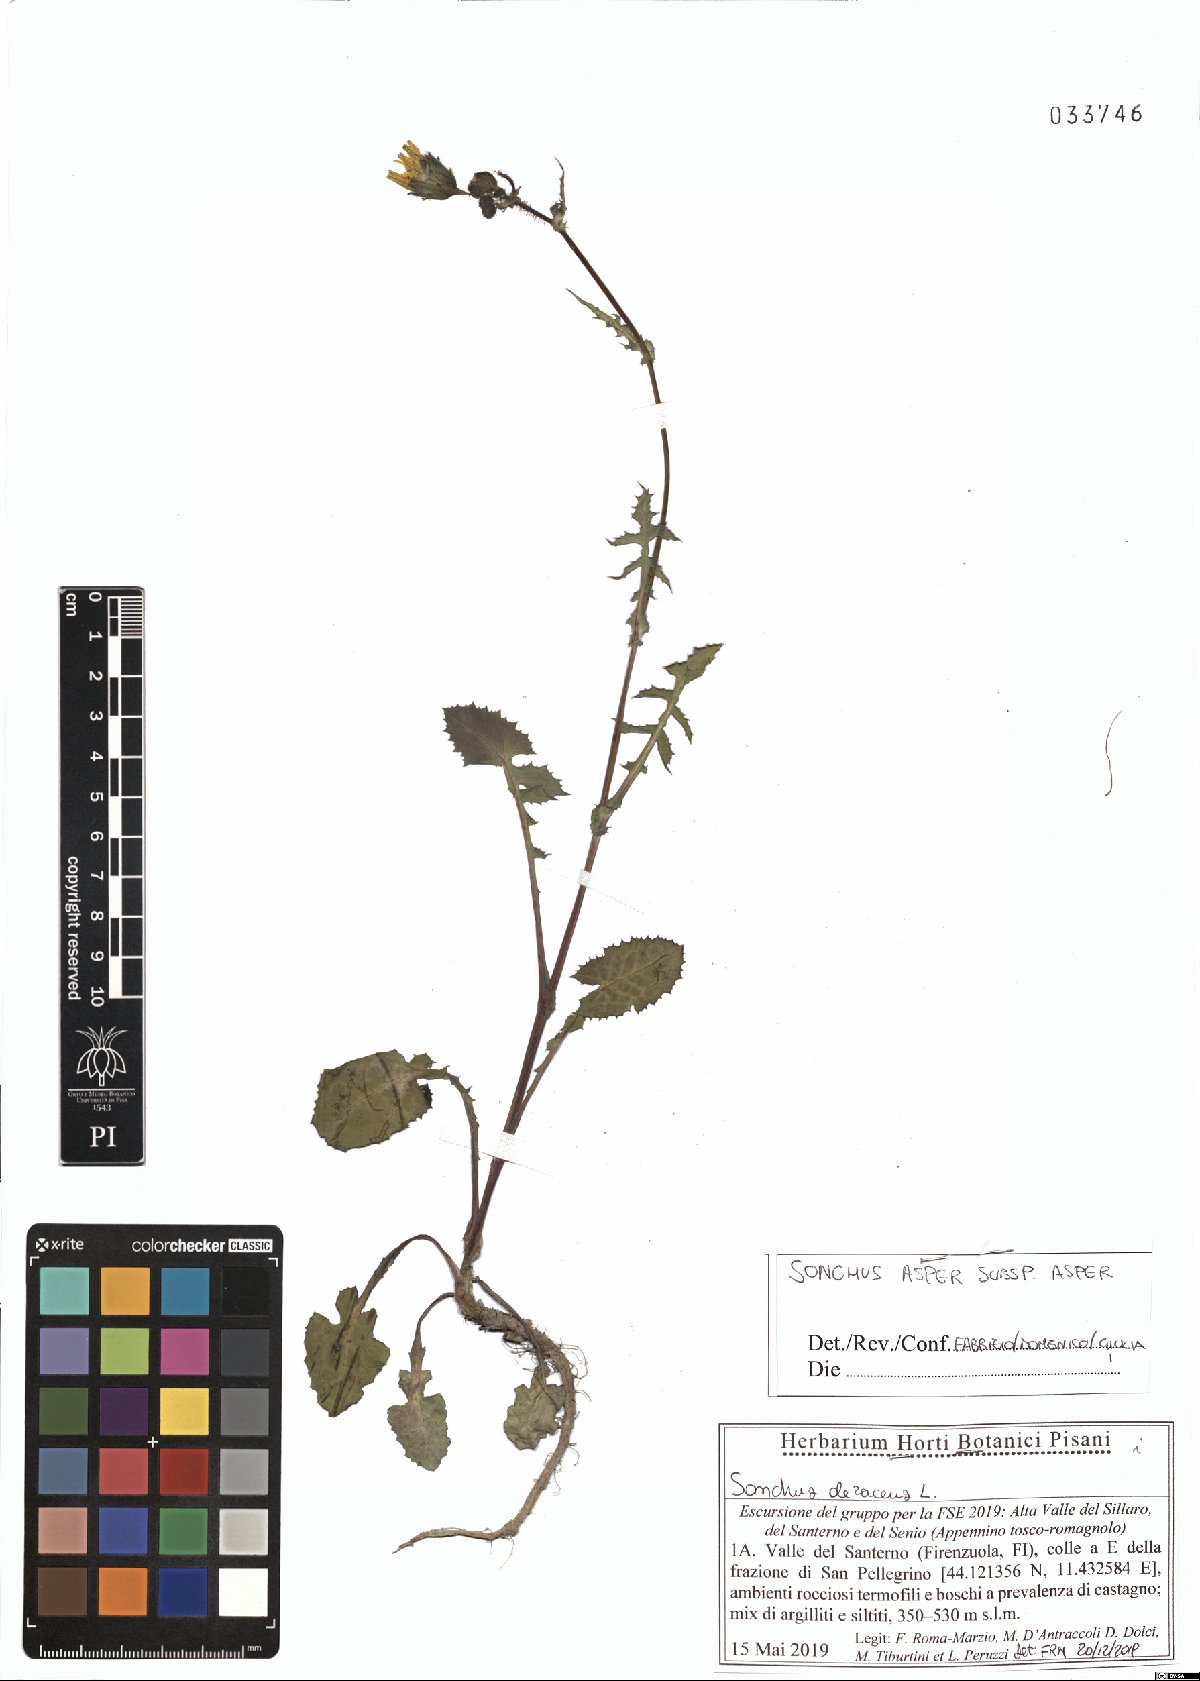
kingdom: Plantae
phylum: Tracheophyta
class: Magnoliopsida
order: Asterales
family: Asteraceae
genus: Sonchus
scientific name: Sonchus asper
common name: Prickly sow-thistle
